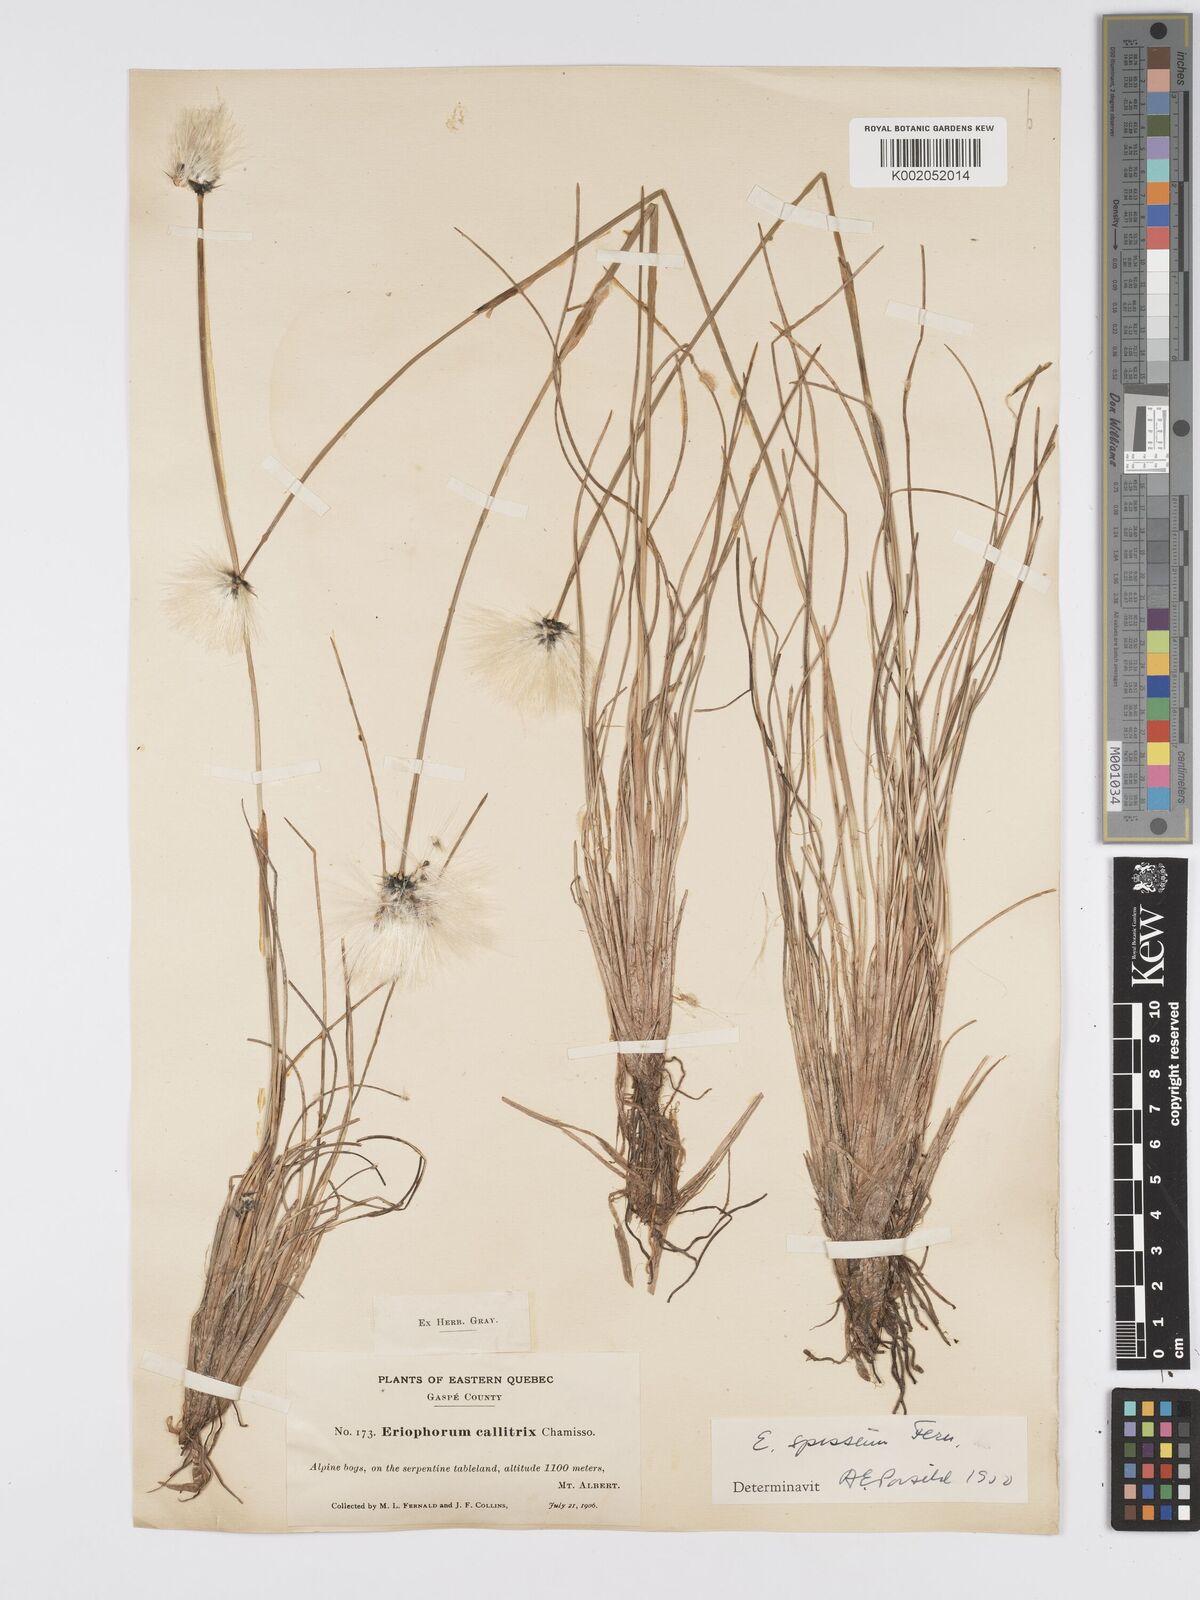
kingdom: Plantae
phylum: Tracheophyta
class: Liliopsida
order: Poales
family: Cyperaceae
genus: Eriophorum
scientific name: Eriophorum vaginatum
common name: Hare's-tail cottongrass
